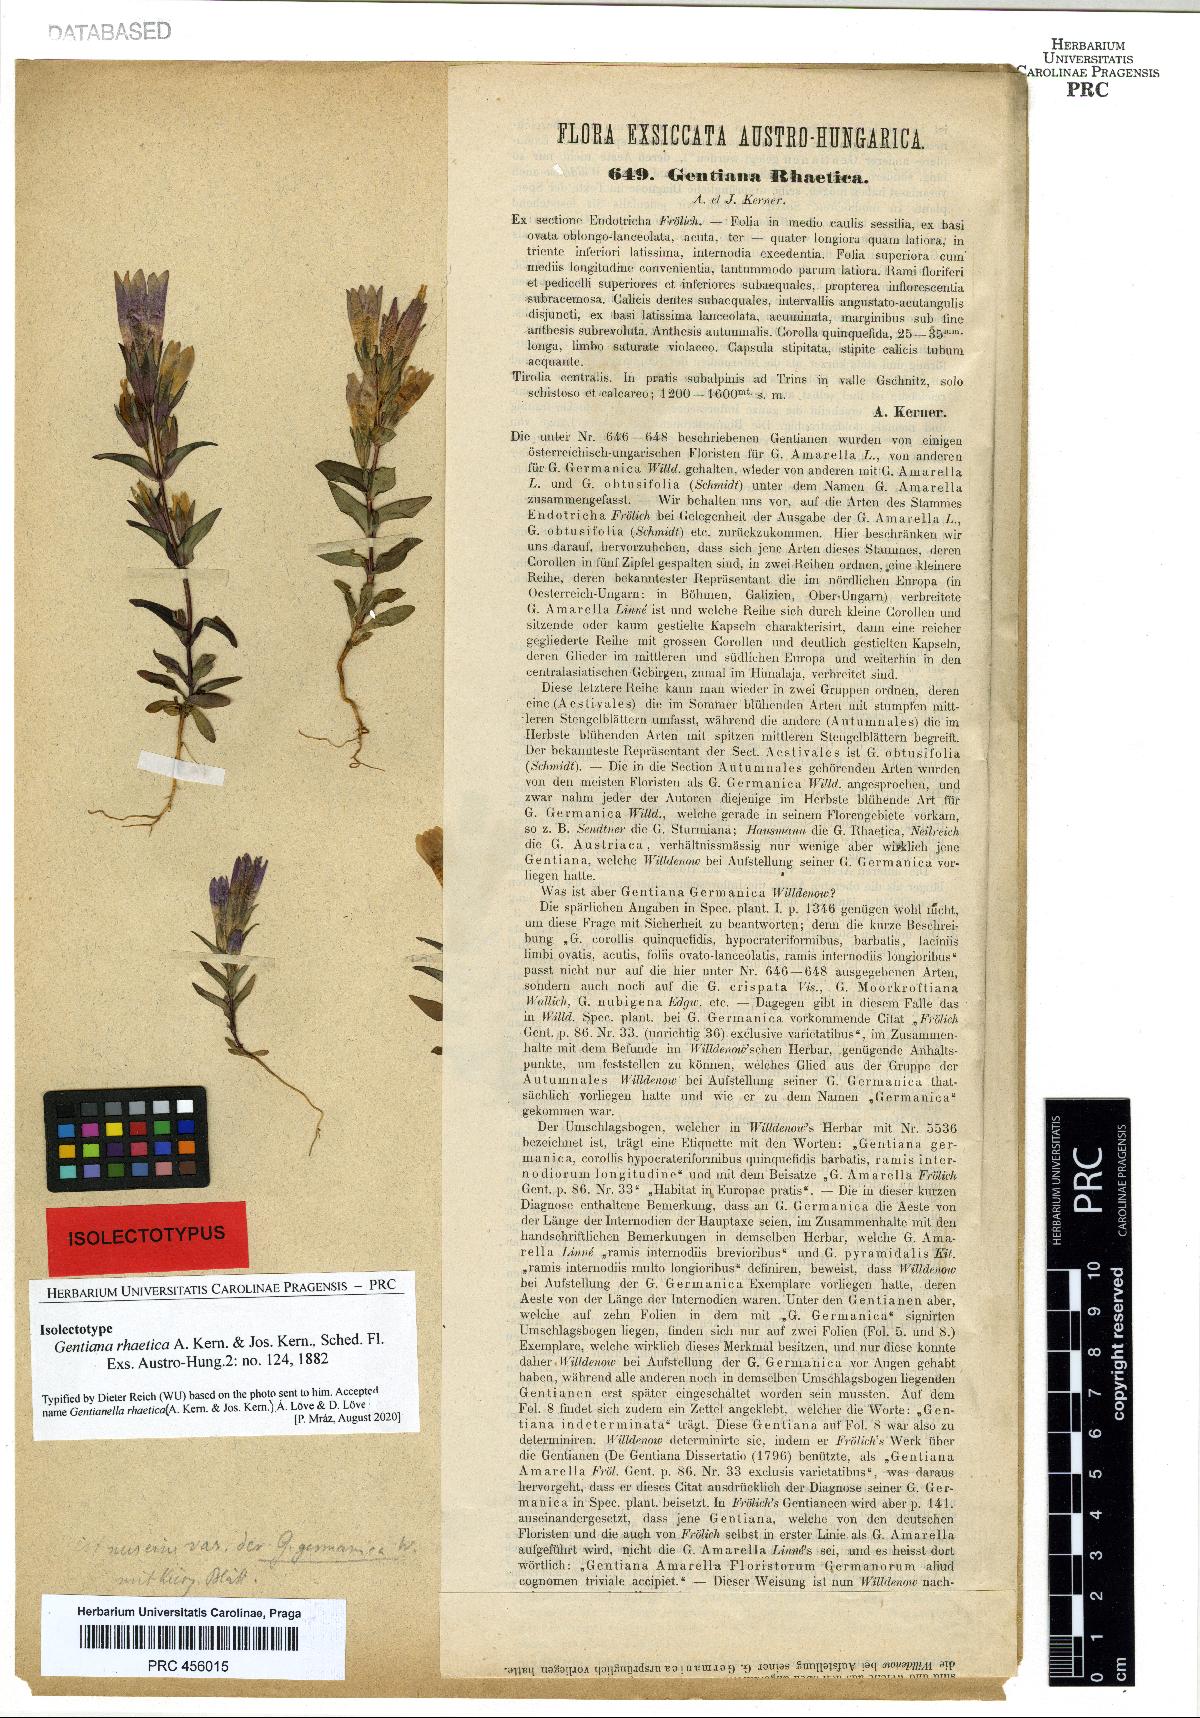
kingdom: Plantae
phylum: Tracheophyta
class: Magnoliopsida
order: Gentianales
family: Gentianaceae
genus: Gentianella
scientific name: Gentianella rhaetica
